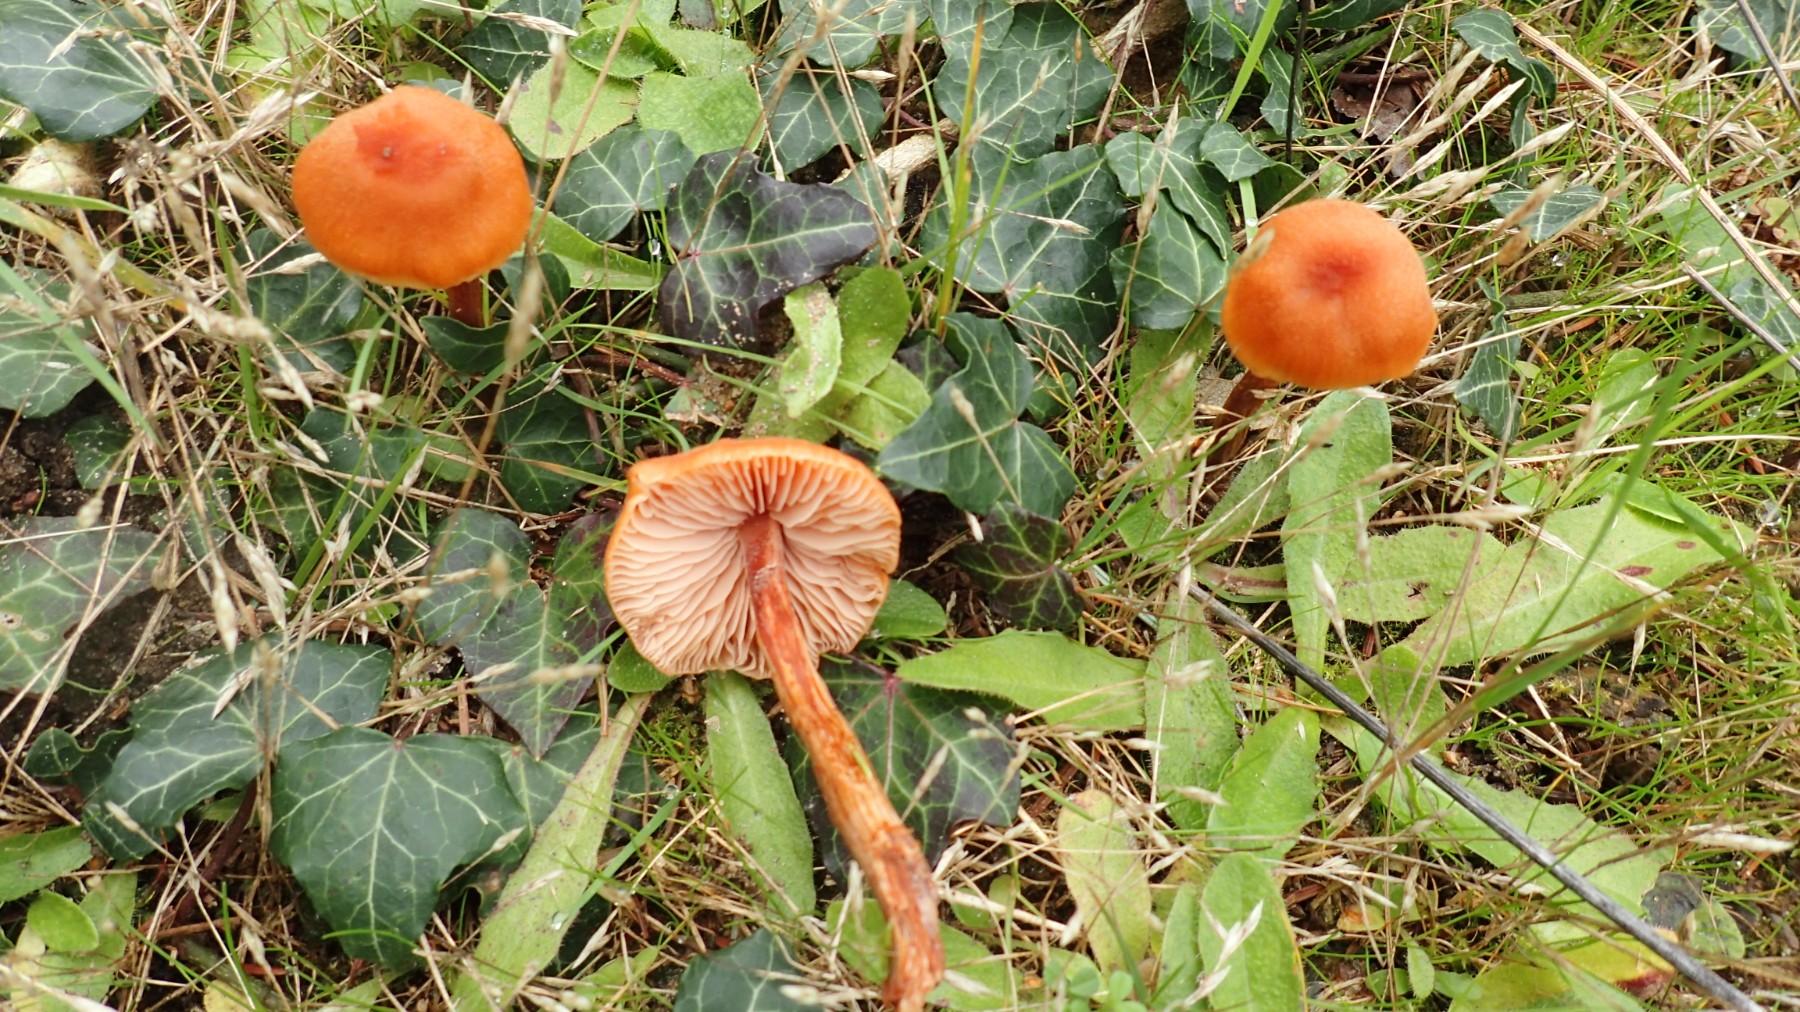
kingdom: Fungi
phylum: Basidiomycota
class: Agaricomycetes
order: Agaricales
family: Hydnangiaceae
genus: Laccaria
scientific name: Laccaria proxima
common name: stor ametysthat
